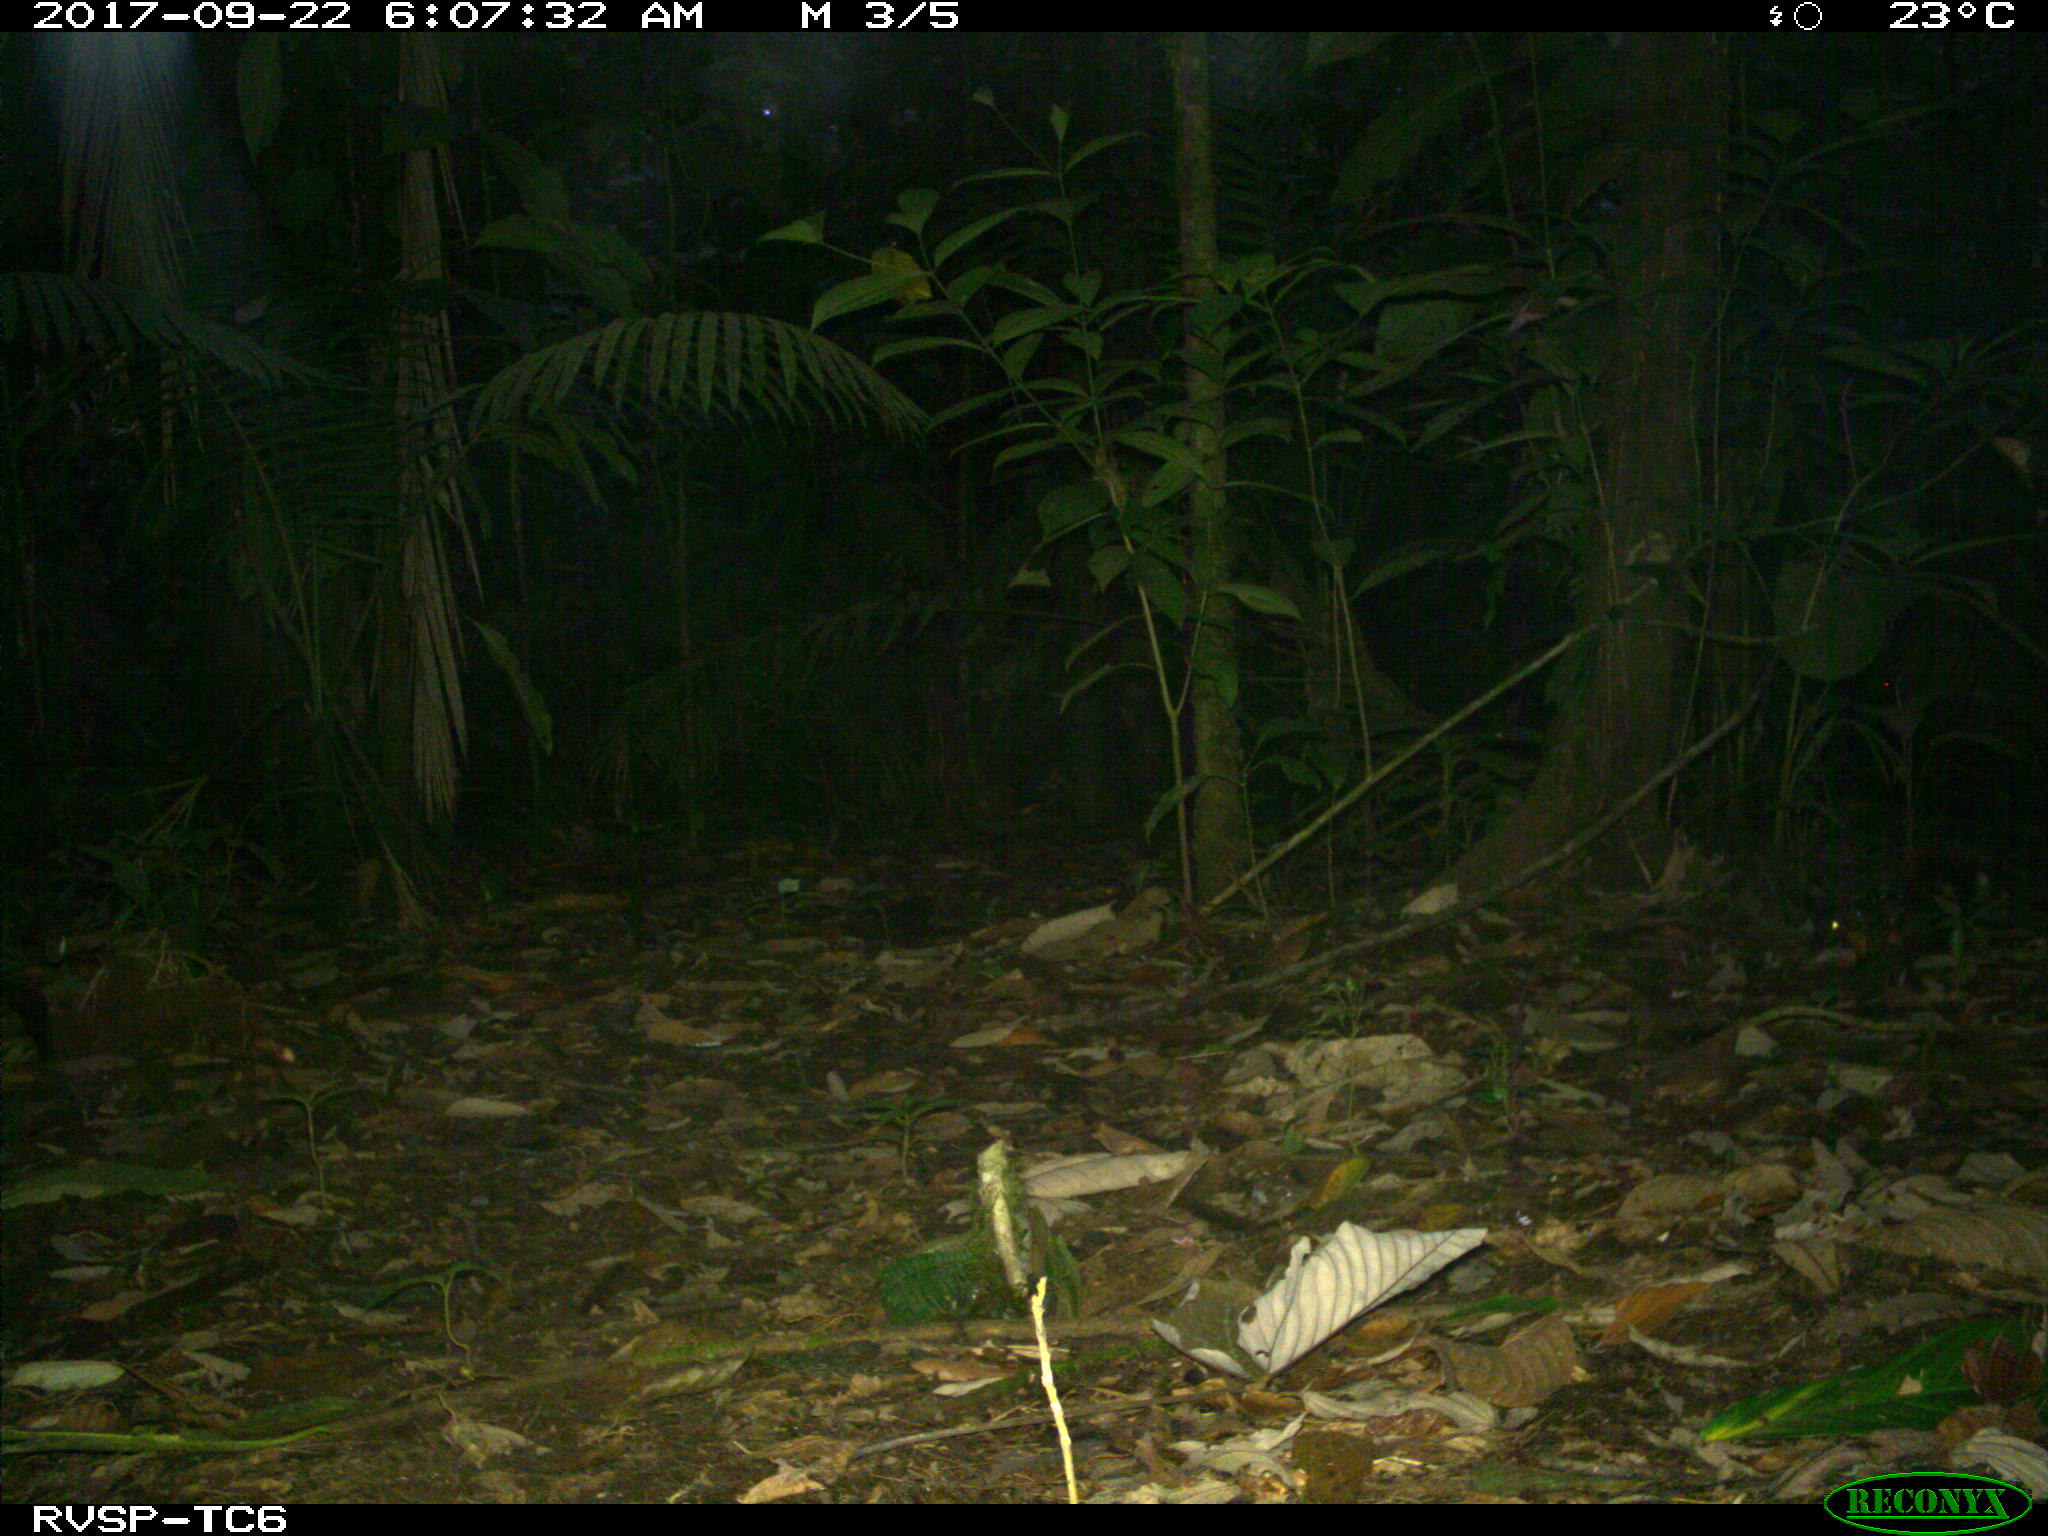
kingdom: Animalia
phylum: Chordata
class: Mammalia
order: Rodentia
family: Sciuridae
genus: Sciurus
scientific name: Sciurus granatensis
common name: Red-tailed squirrel
